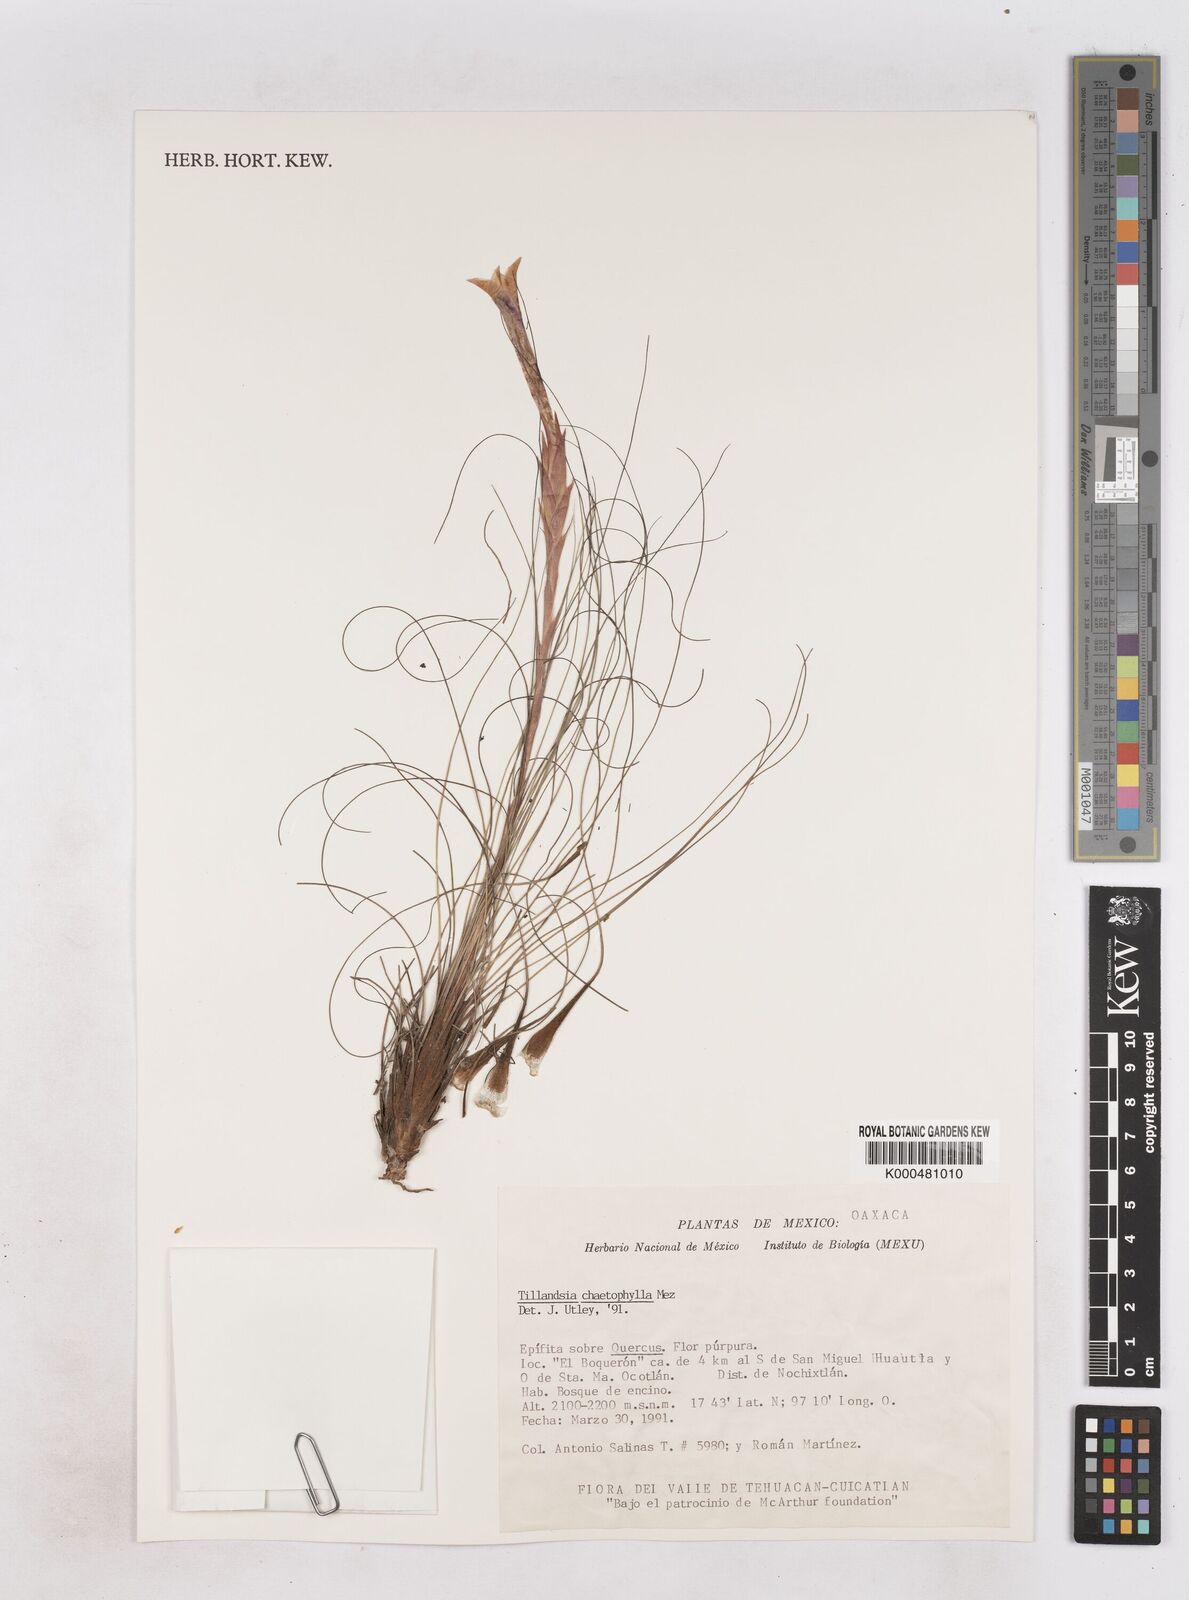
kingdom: Plantae
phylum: Tracheophyta
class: Liliopsida
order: Poales
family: Bromeliaceae
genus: Tillandsia
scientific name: Tillandsia chaetophylla
